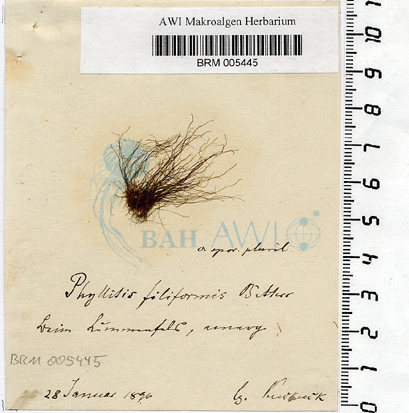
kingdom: Chromista
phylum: Ochrophyta
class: Phaeophyceae
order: Scytosiphonales
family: Scytosiphonaceae
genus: Planosiphon
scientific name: Planosiphon filiformis
